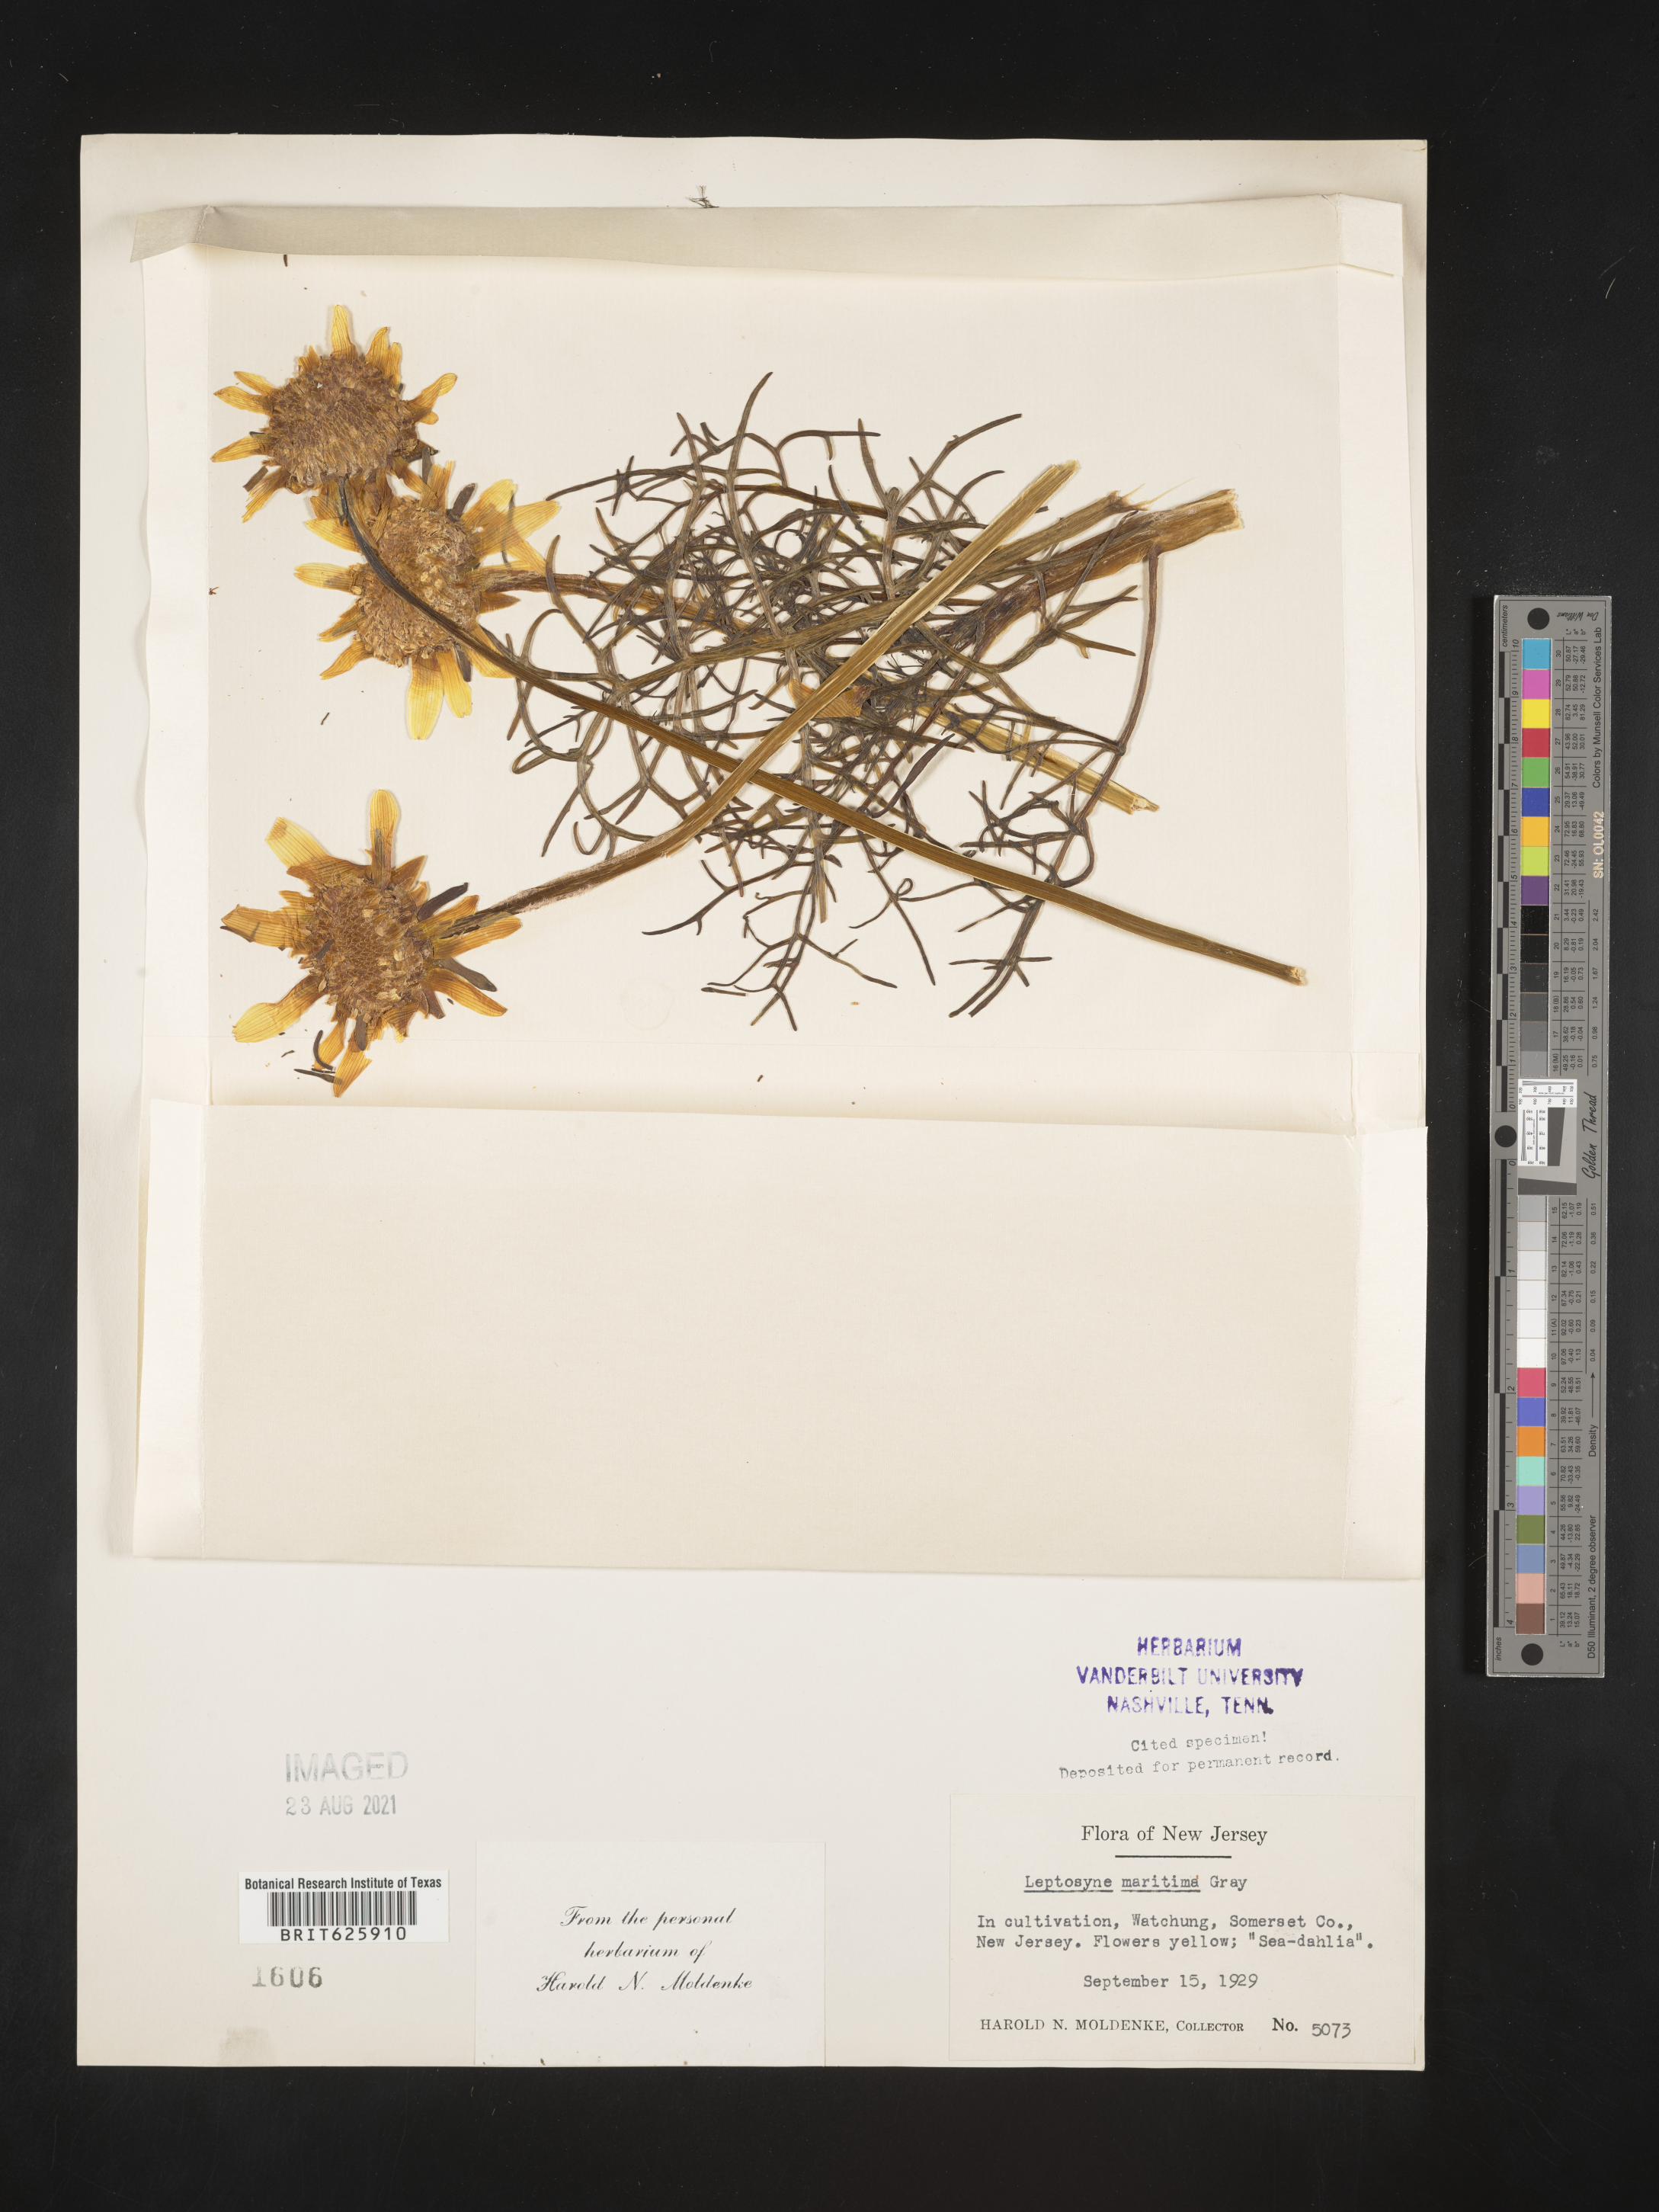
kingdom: Plantae
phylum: Tracheophyta
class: Magnoliopsida
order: Asterales
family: Asteraceae
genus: Coreopsis
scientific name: Coreopsis maritima
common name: Sea-dahlia
